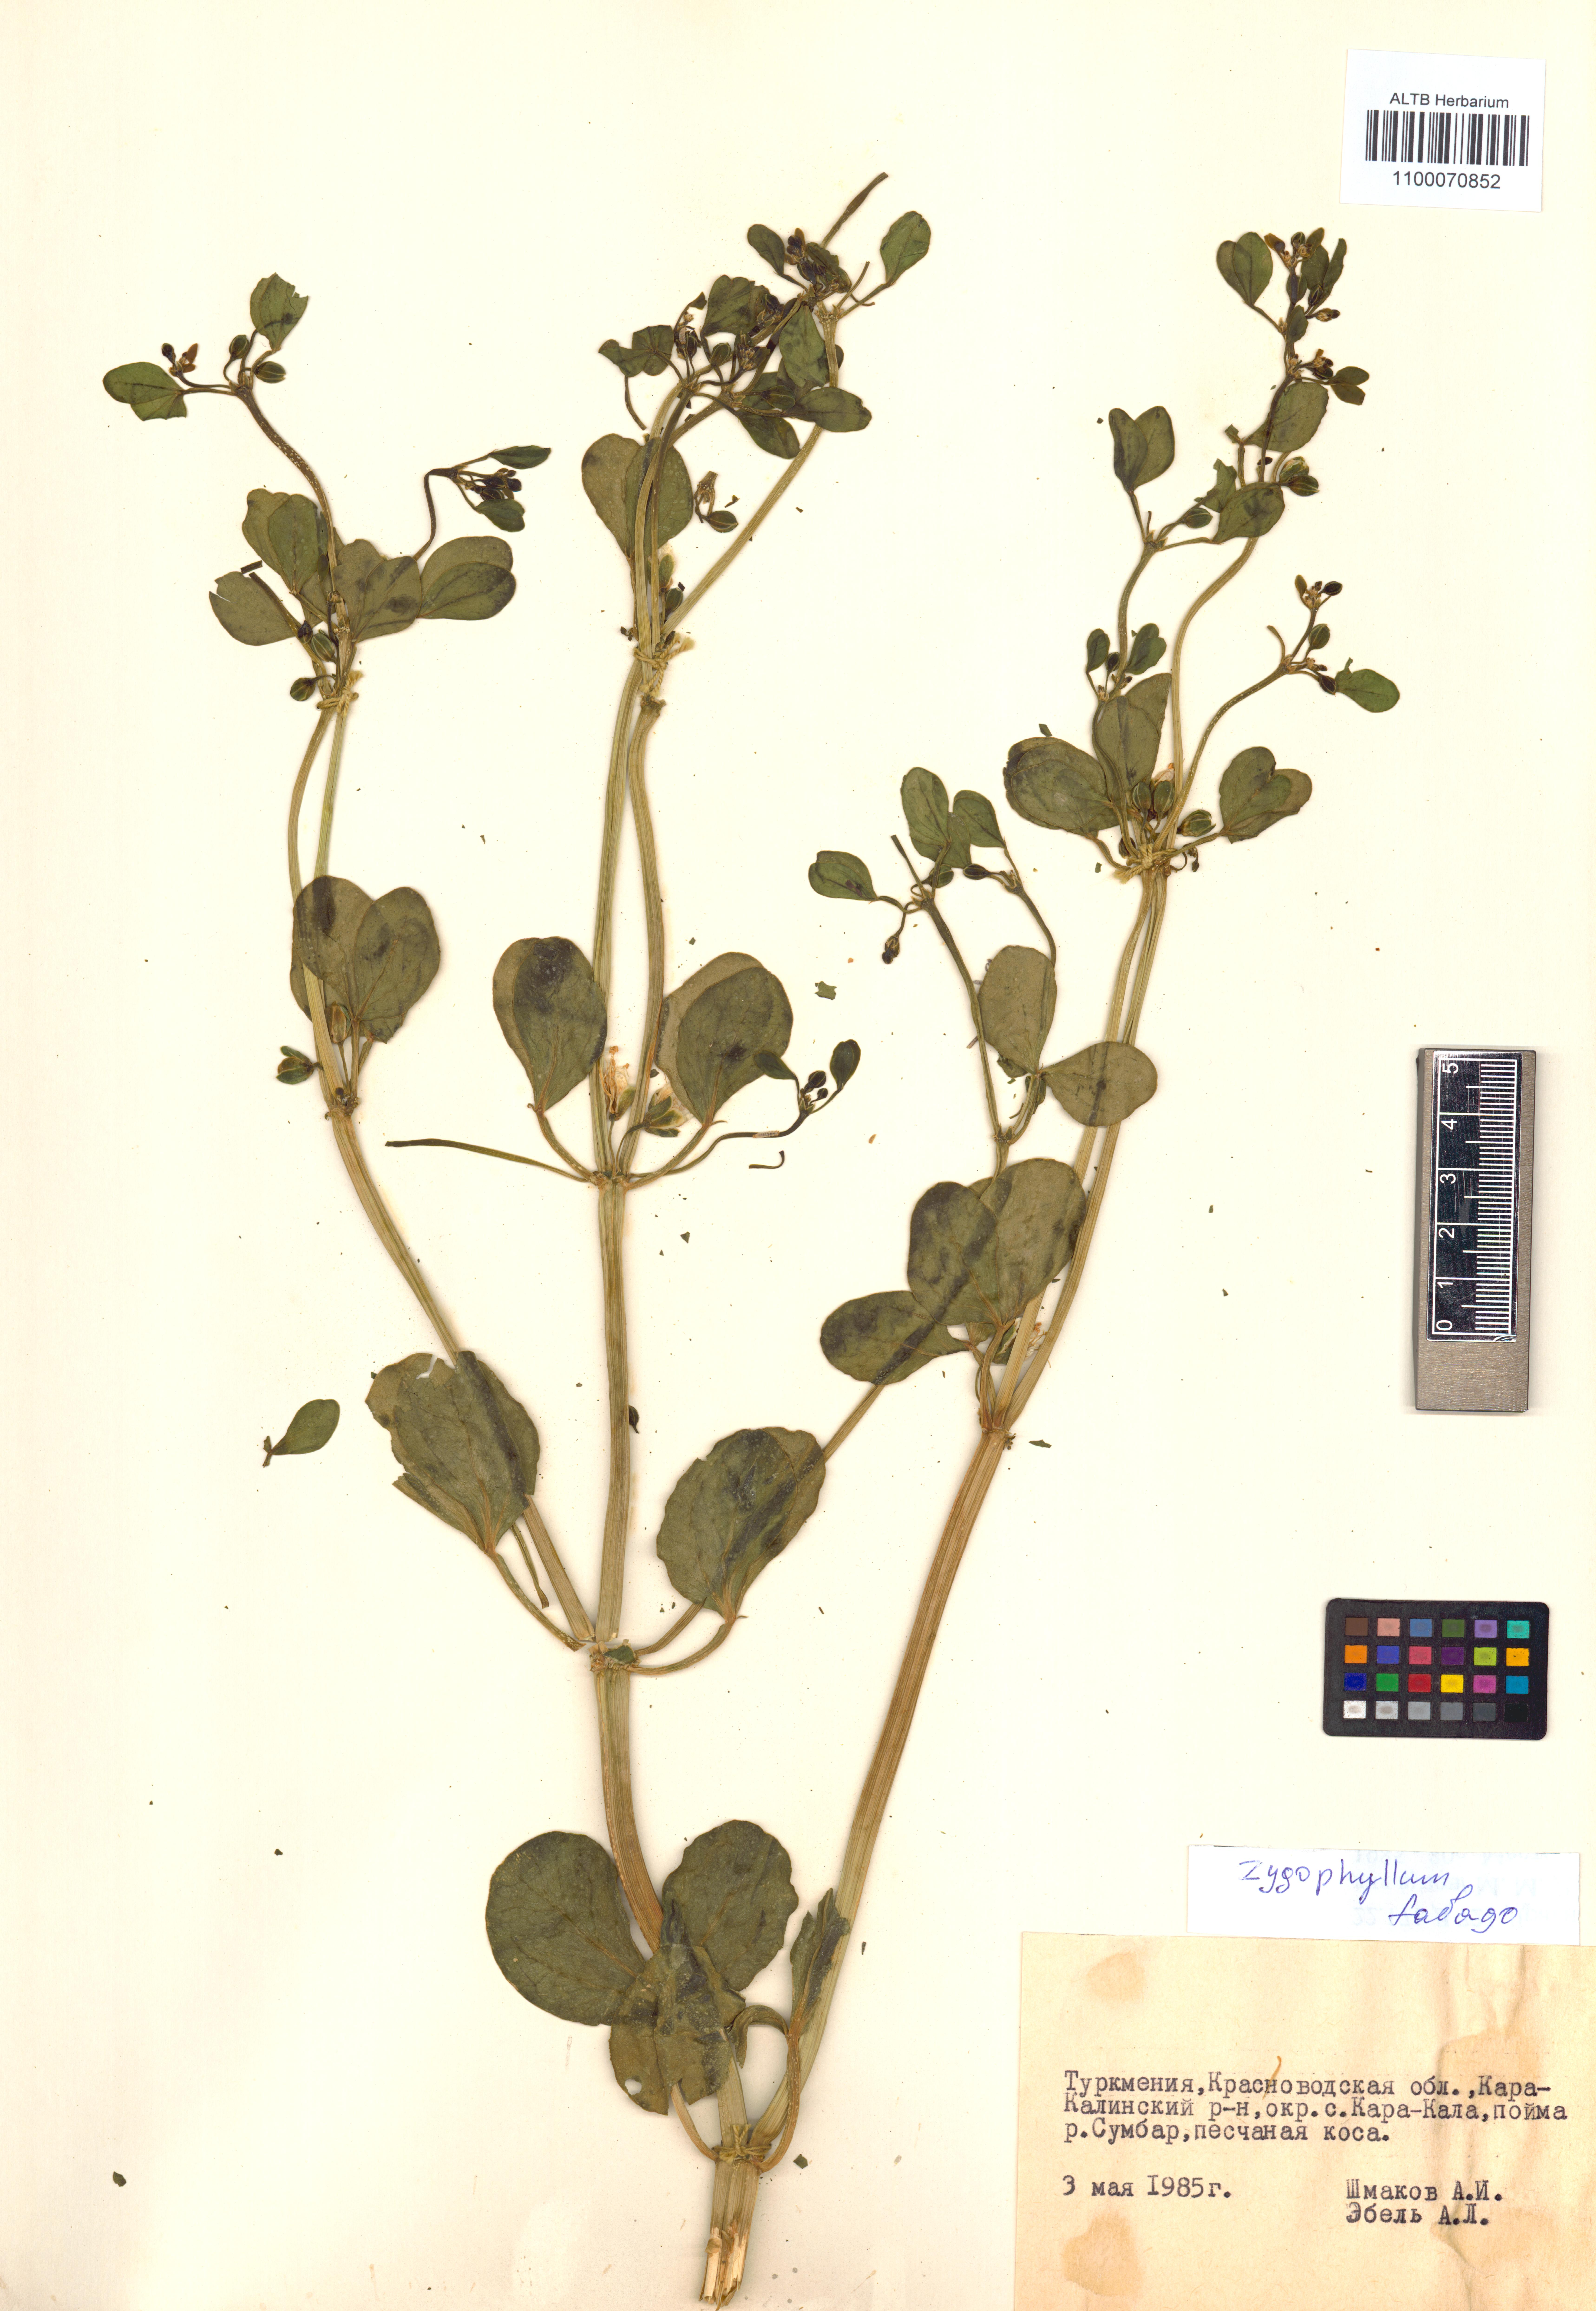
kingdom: Plantae
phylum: Tracheophyta
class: Magnoliopsida
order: Zygophyllales
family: Zygophyllaceae
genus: Zygophyllum
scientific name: Zygophyllum fabago
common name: Syrian beancaper
